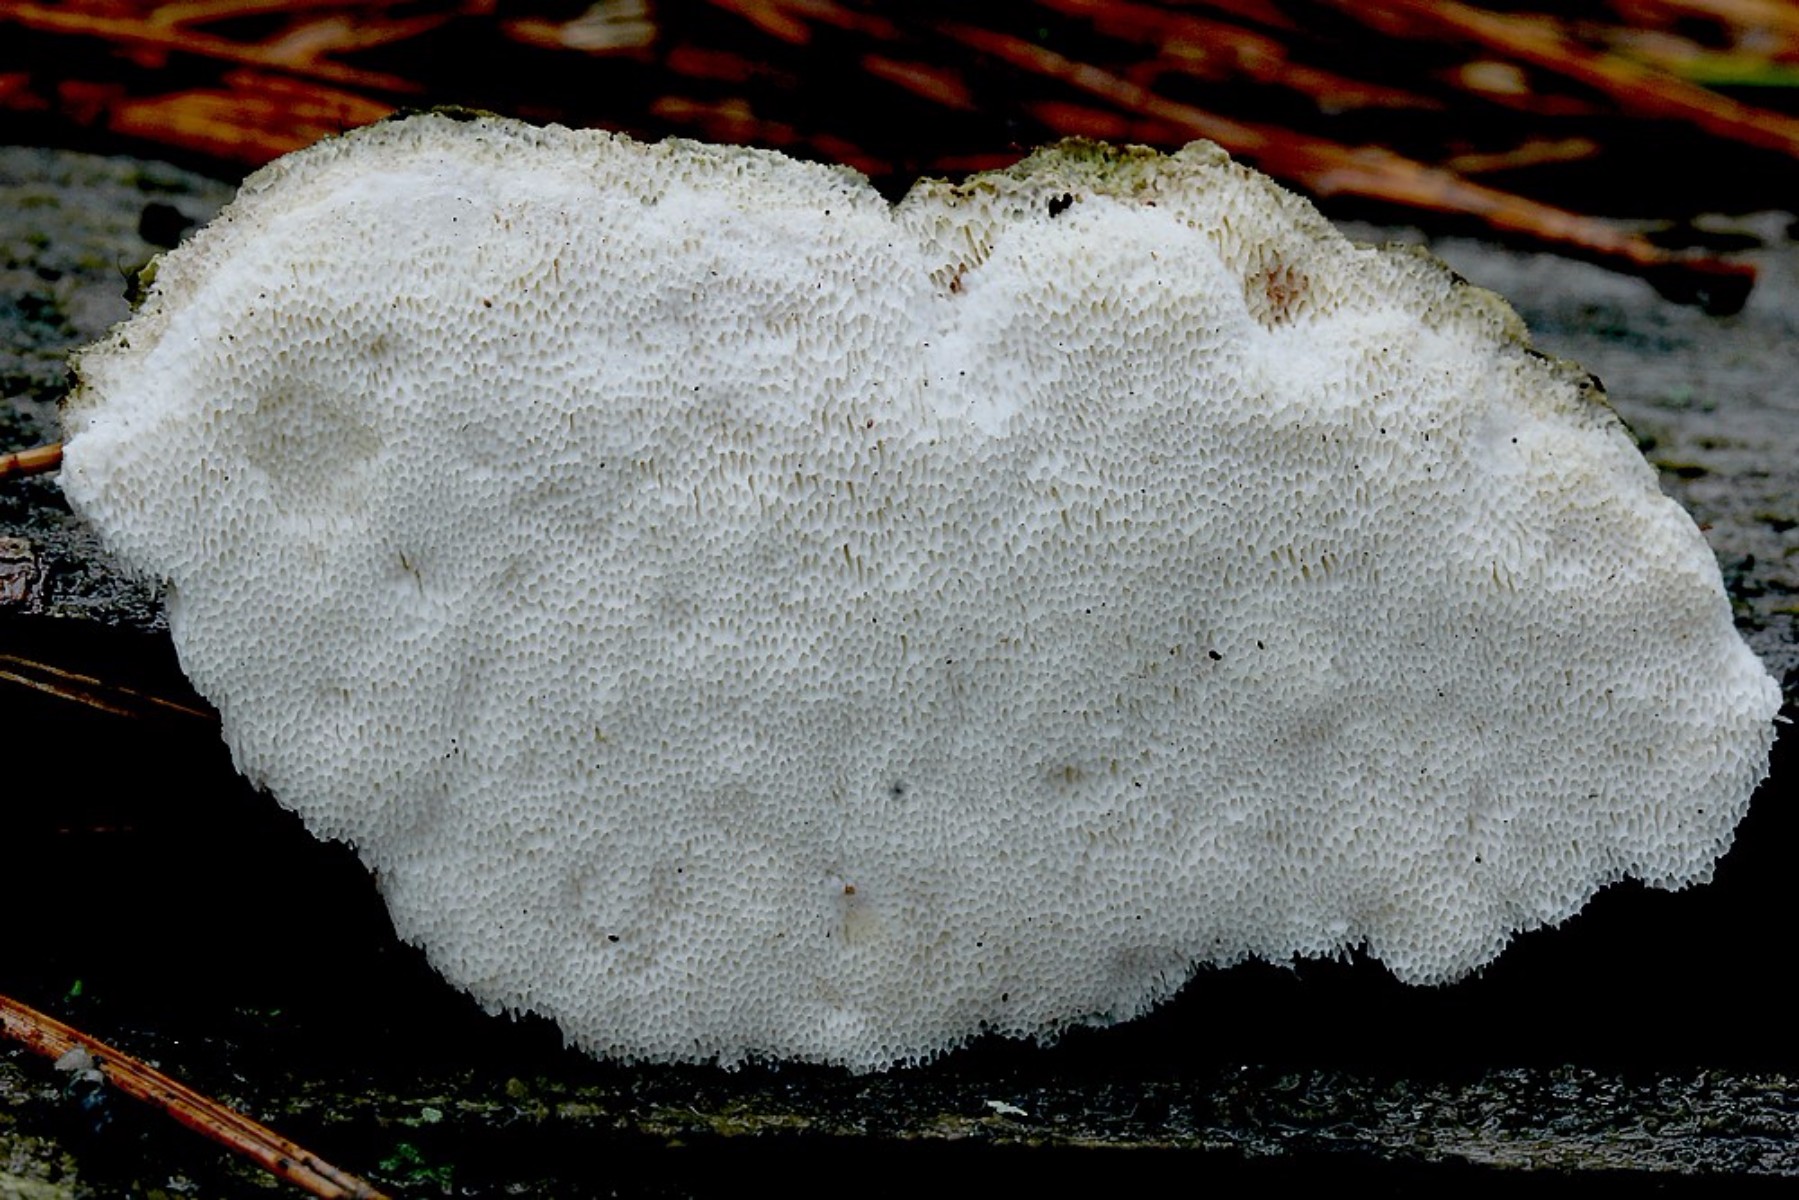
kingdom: Fungi
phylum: Basidiomycota
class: Agaricomycetes
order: Polyporales
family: Gelatoporiaceae
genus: Cinereomyces
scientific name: Cinereomyces lindbladii
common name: almindelig gråporesvamp
